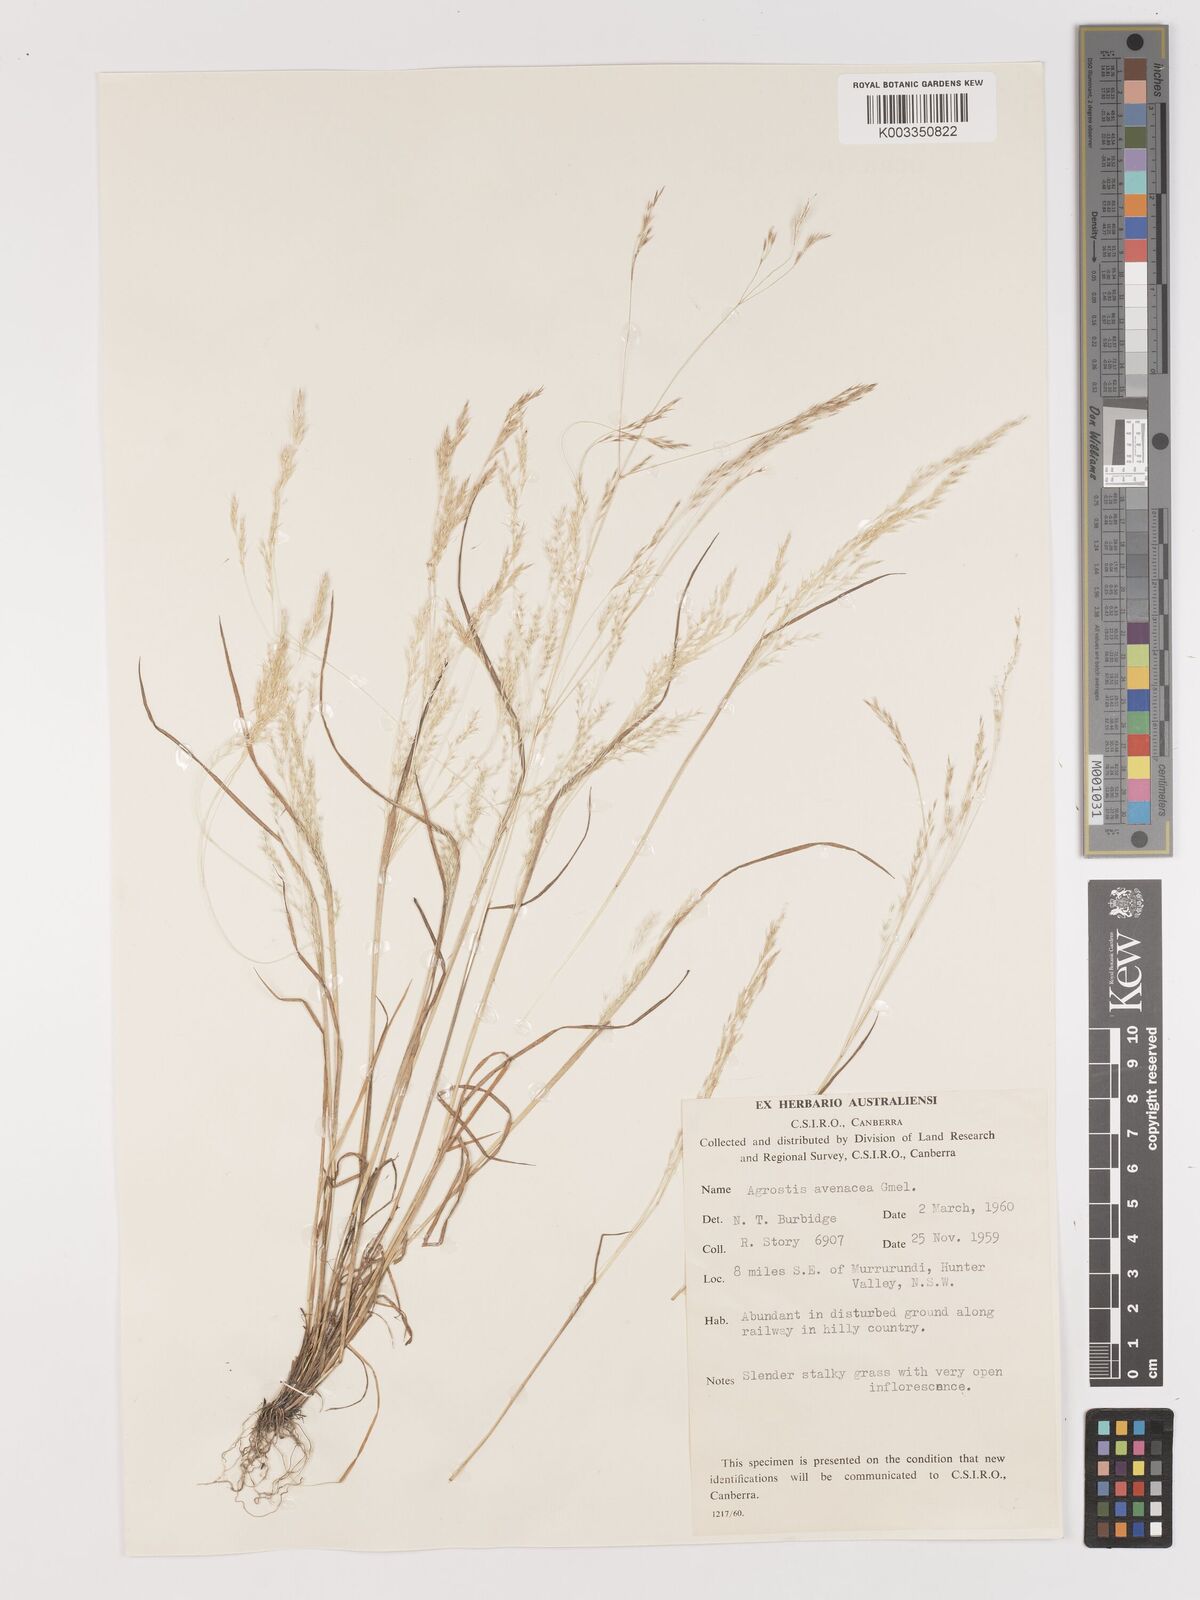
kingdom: Plantae
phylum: Tracheophyta
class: Liliopsida
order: Poales
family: Poaceae
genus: Lachnagrostis
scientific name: Lachnagrostis filiformis
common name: Bentgrass
